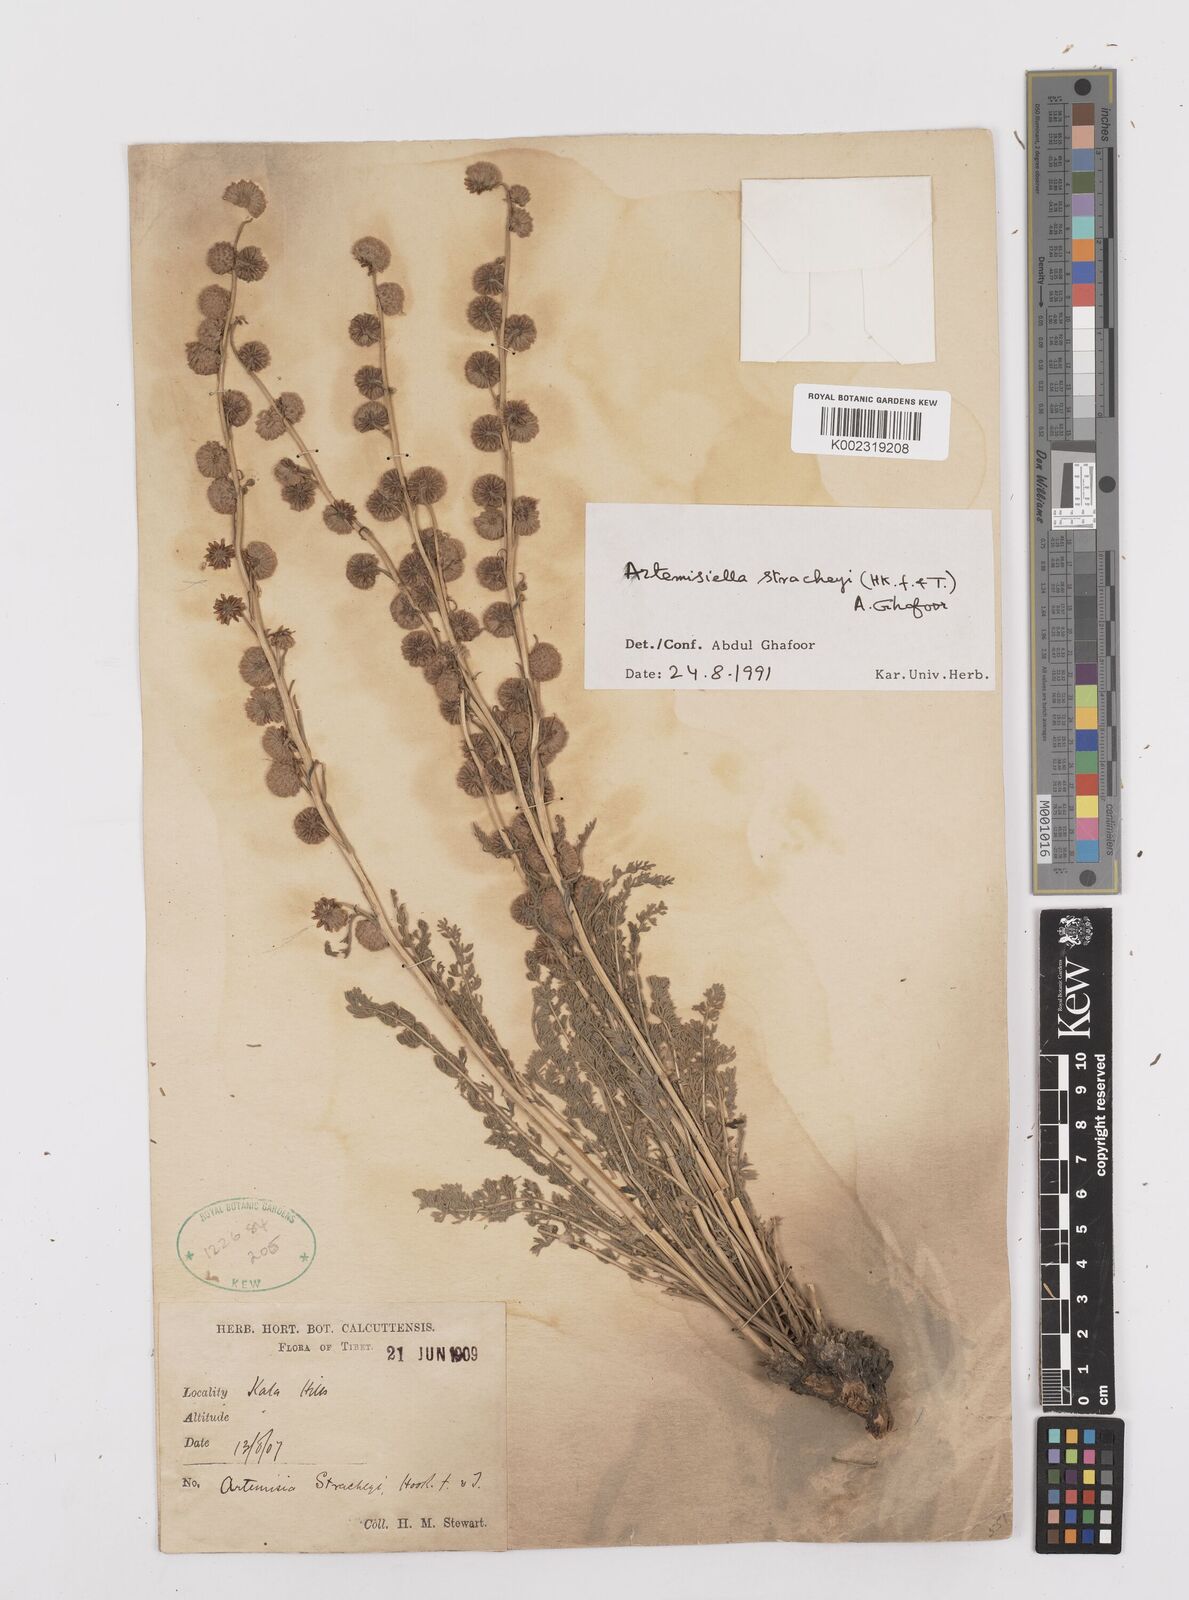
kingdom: Plantae
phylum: Tracheophyta
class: Magnoliopsida
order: Asterales
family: Asteraceae
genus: Artemisiella
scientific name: Artemisiella stracheyi
